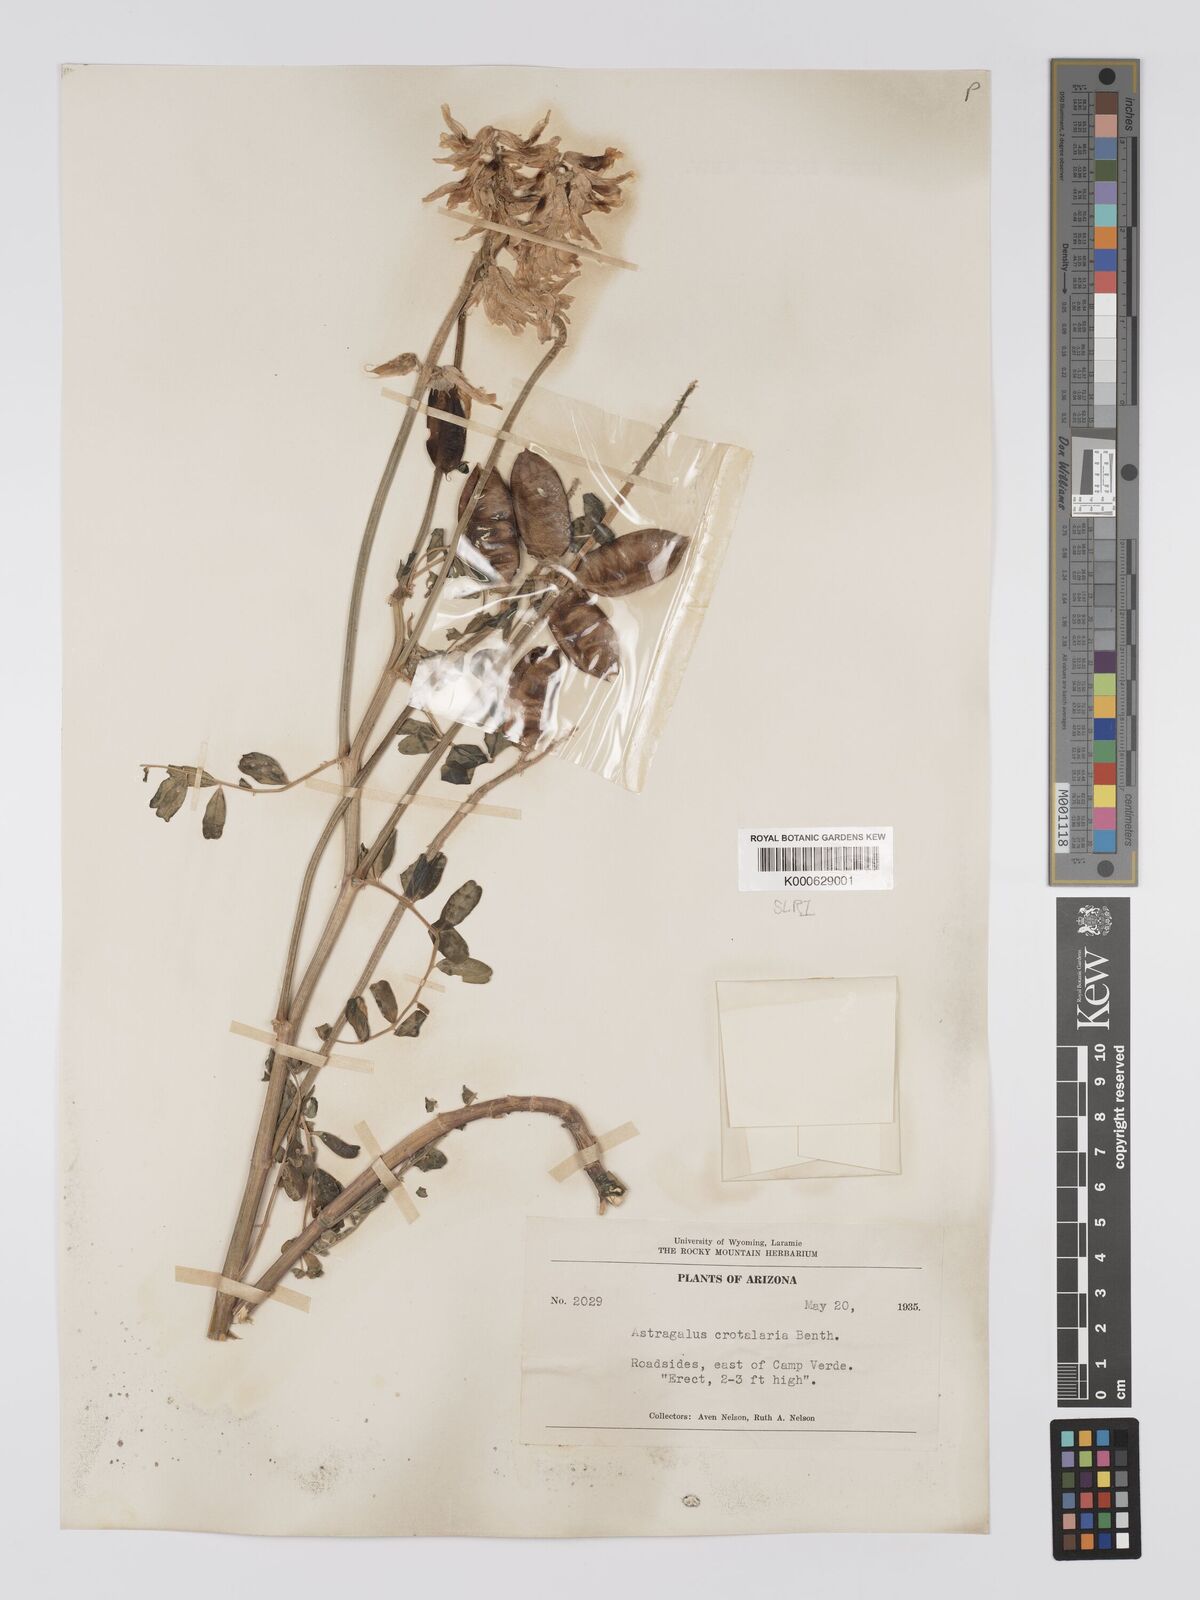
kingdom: Plantae
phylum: Tracheophyta
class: Magnoliopsida
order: Fabales
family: Fabaceae
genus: Astragalus
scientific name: Astragalus crotalariae
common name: Salton milkvetch
